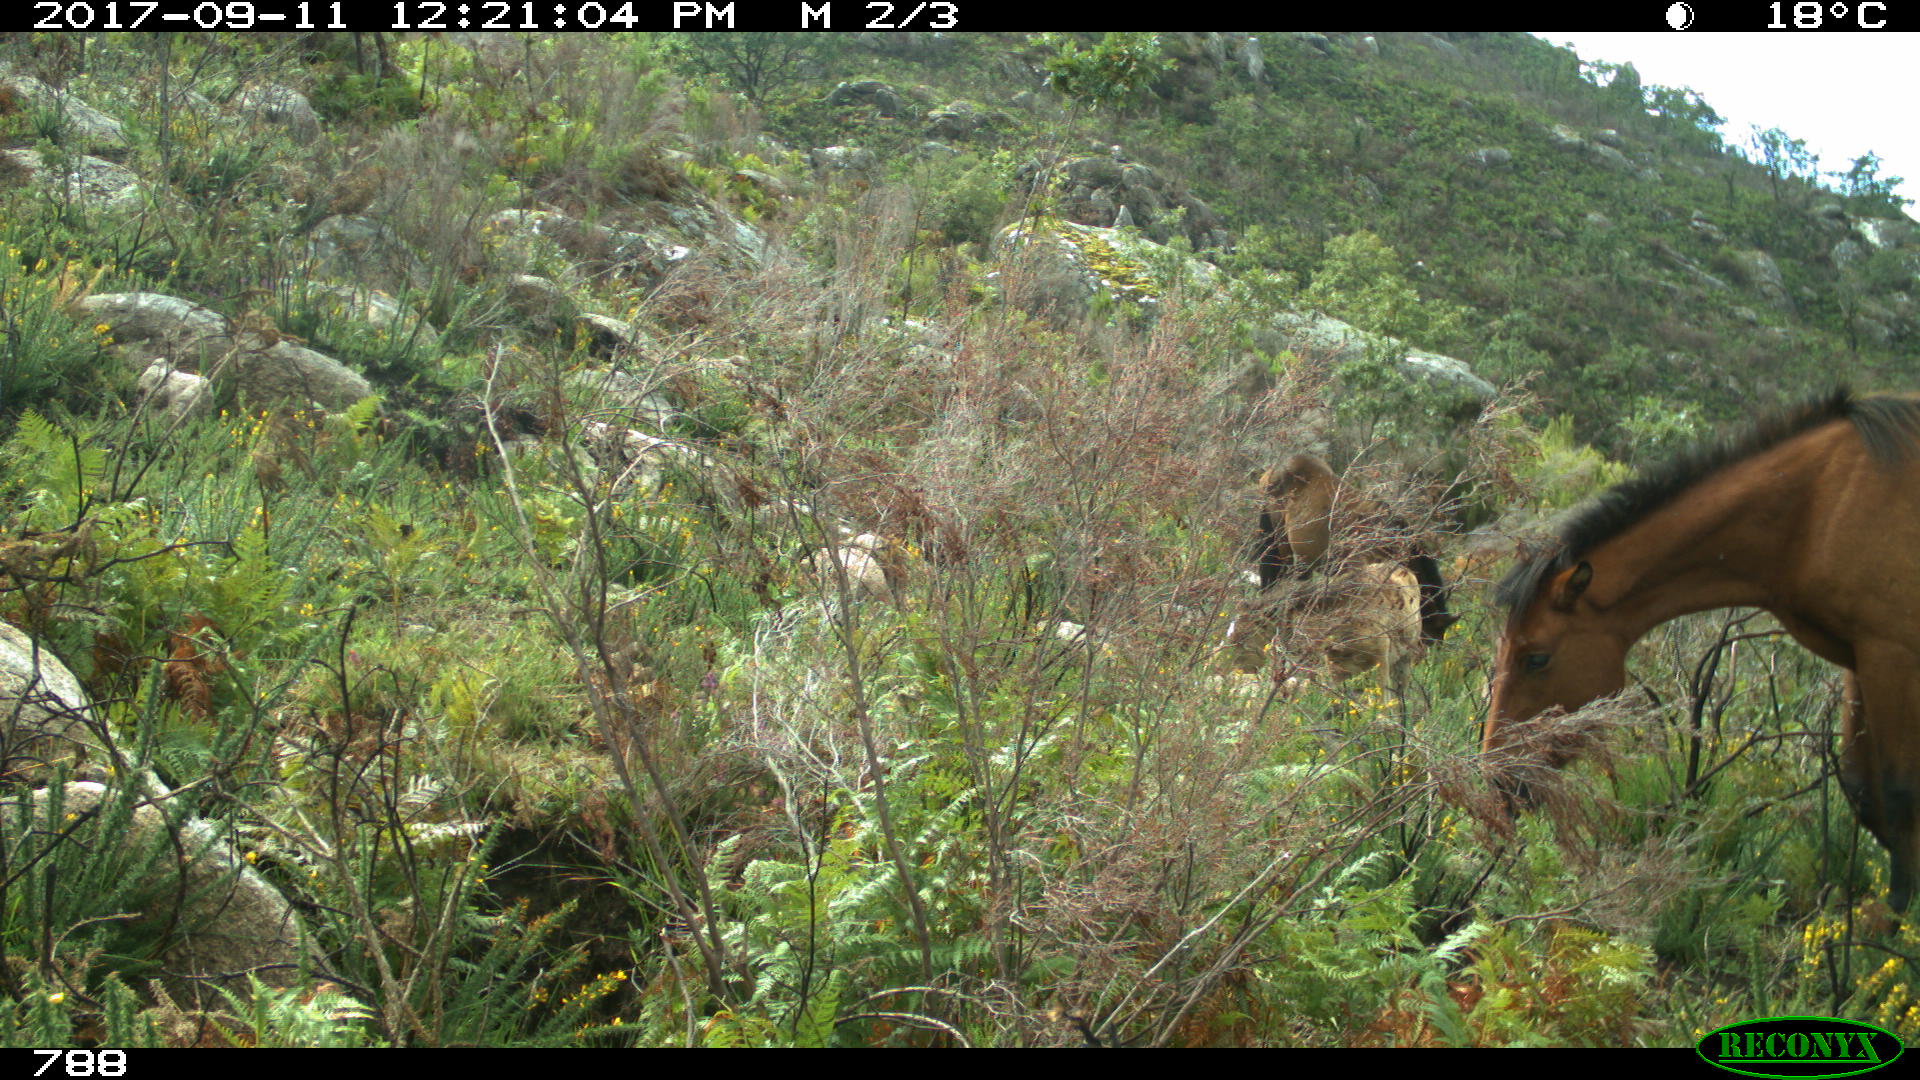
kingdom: Animalia
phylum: Chordata
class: Mammalia
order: Perissodactyla
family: Equidae
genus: Equus
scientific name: Equus caballus
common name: Horse
